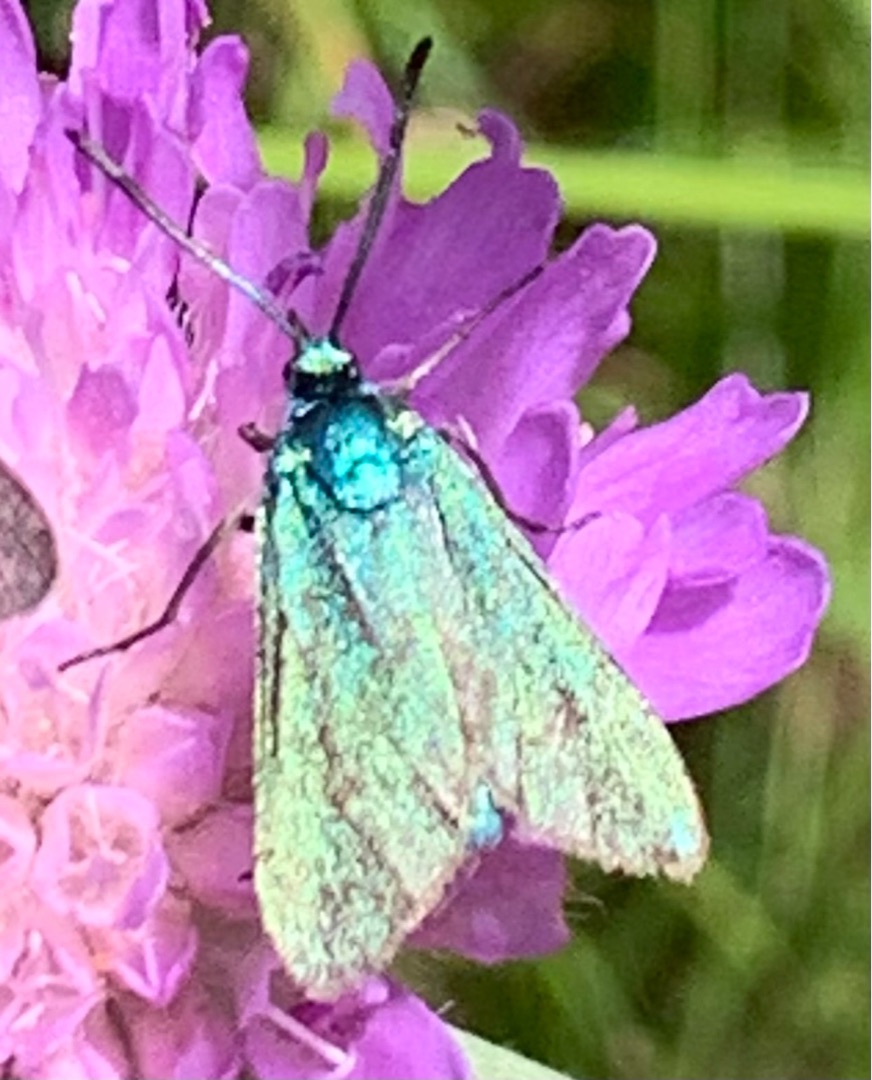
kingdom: Animalia
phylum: Arthropoda
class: Insecta
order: Lepidoptera
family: Zygaenidae
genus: Adscita
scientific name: Adscita statices
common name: Metalvinge
